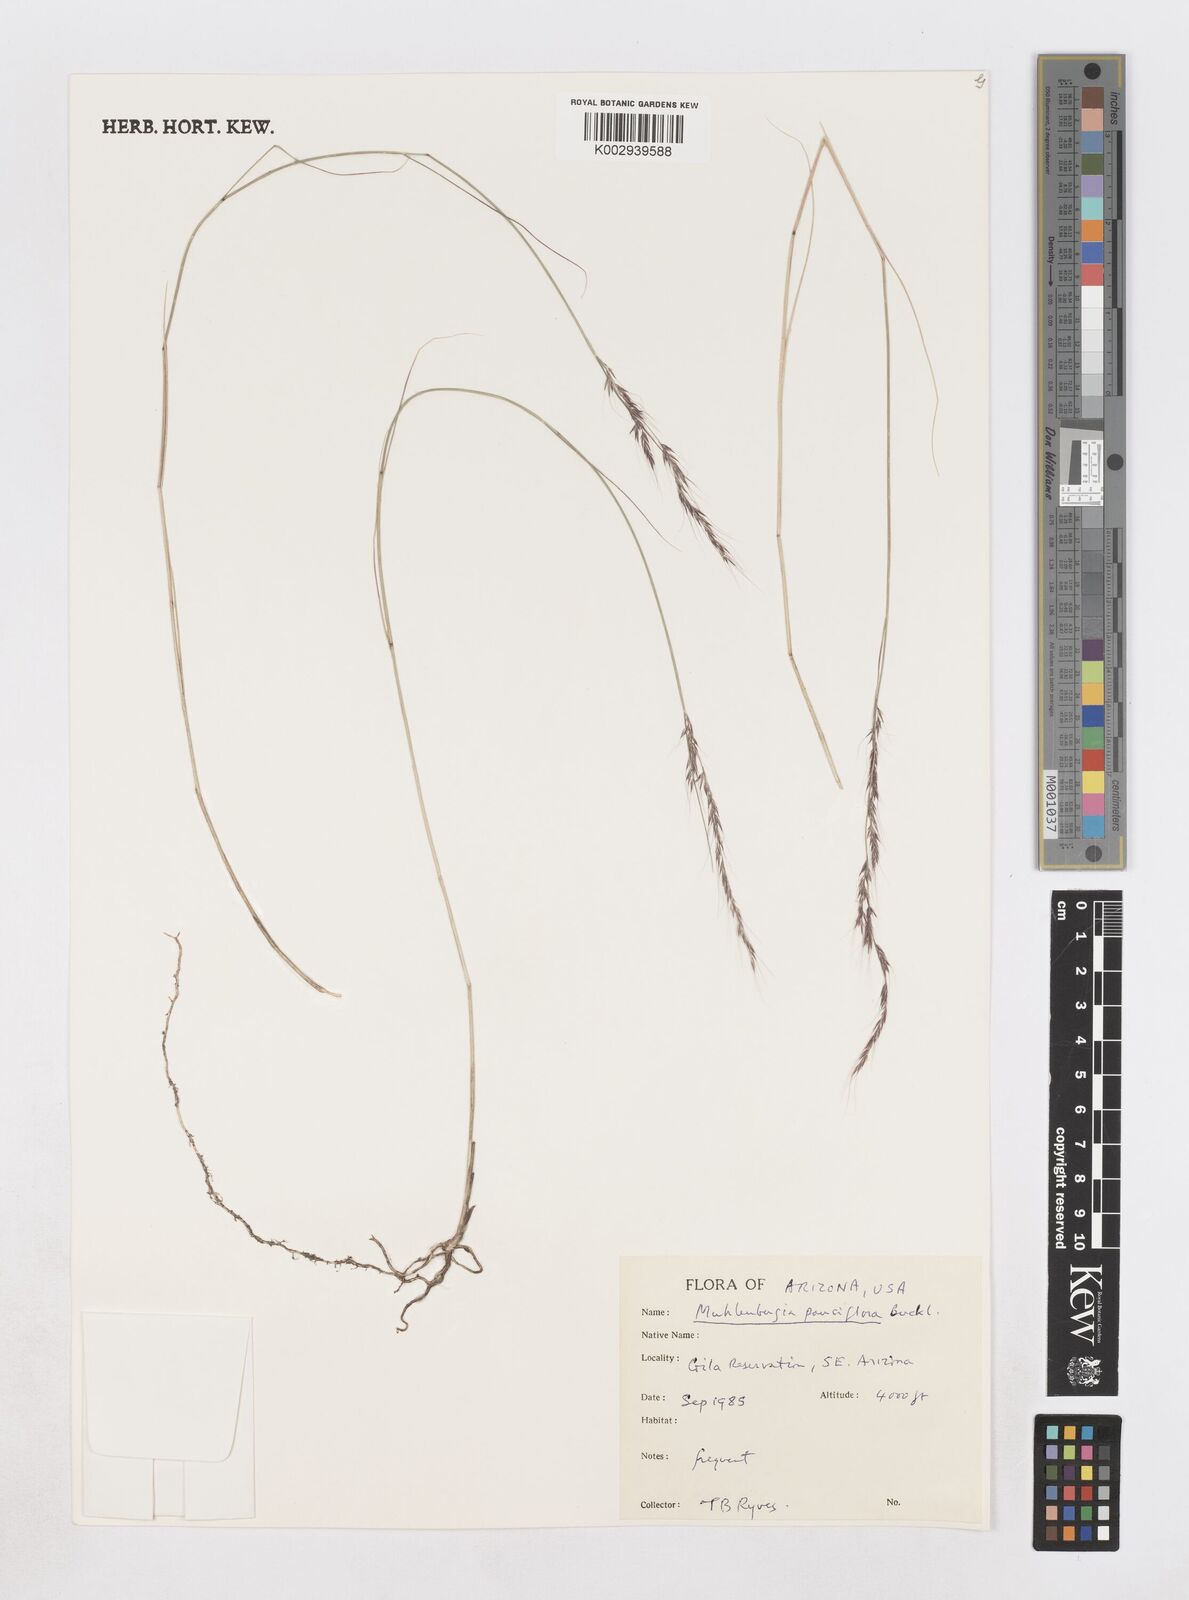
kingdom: Plantae
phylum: Tracheophyta
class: Liliopsida
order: Poales
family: Poaceae
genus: Muhlenbergia
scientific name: Muhlenbergia pauciflora
